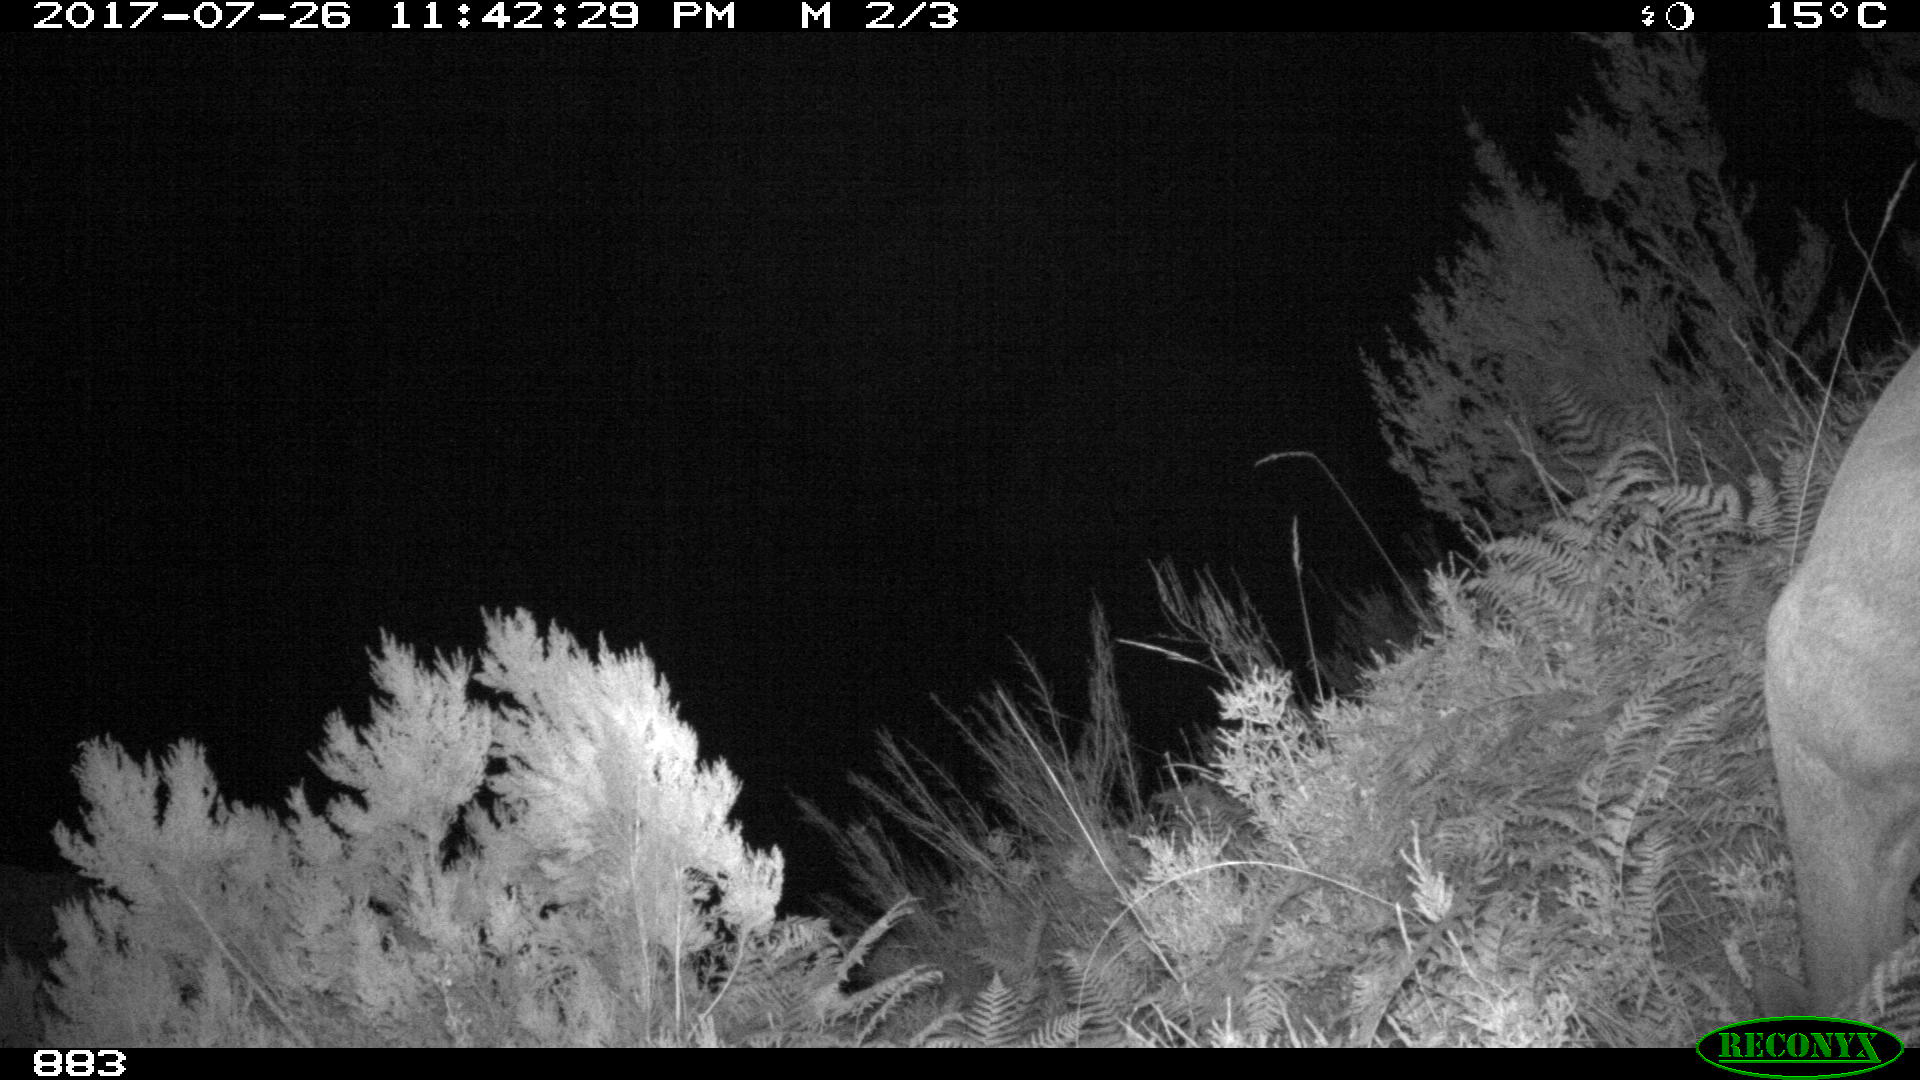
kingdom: Animalia
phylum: Chordata
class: Mammalia
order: Artiodactyla
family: Cervidae
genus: Capreolus
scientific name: Capreolus capreolus
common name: Western roe deer
